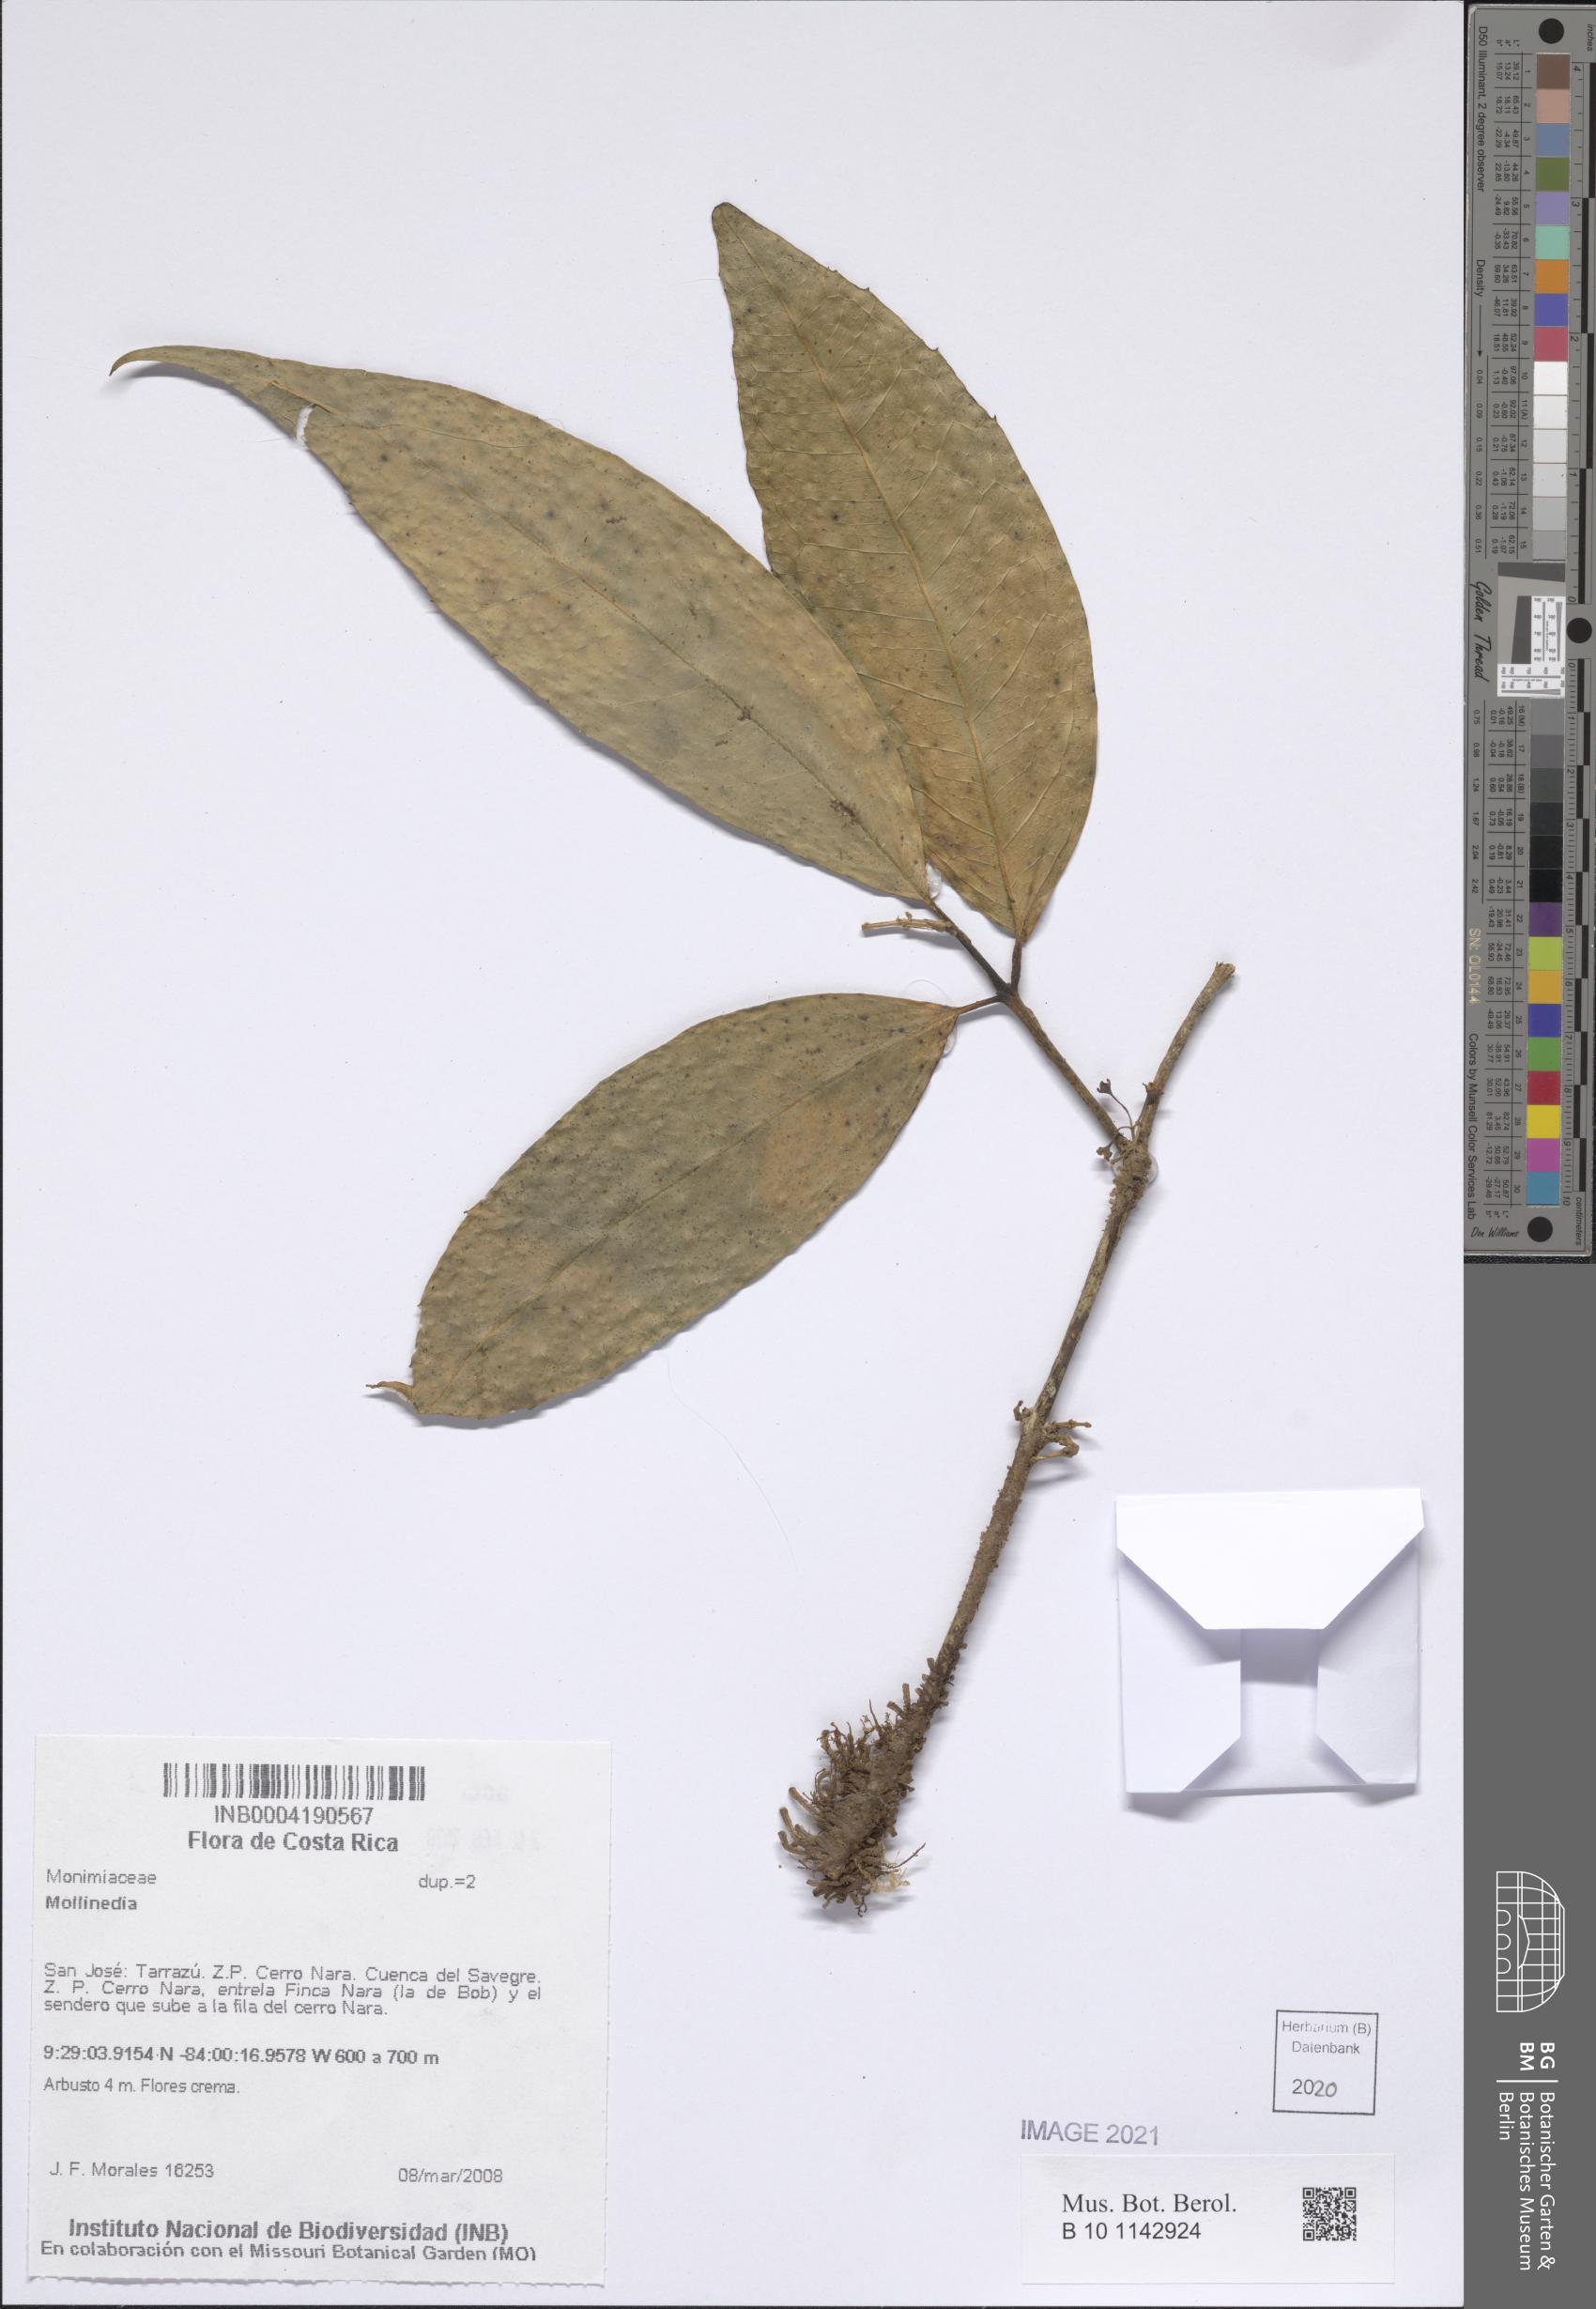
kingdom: Plantae
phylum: Tracheophyta
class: Magnoliopsida
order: Laurales
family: Monimiaceae
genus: Mollinedia
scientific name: Mollinedia
